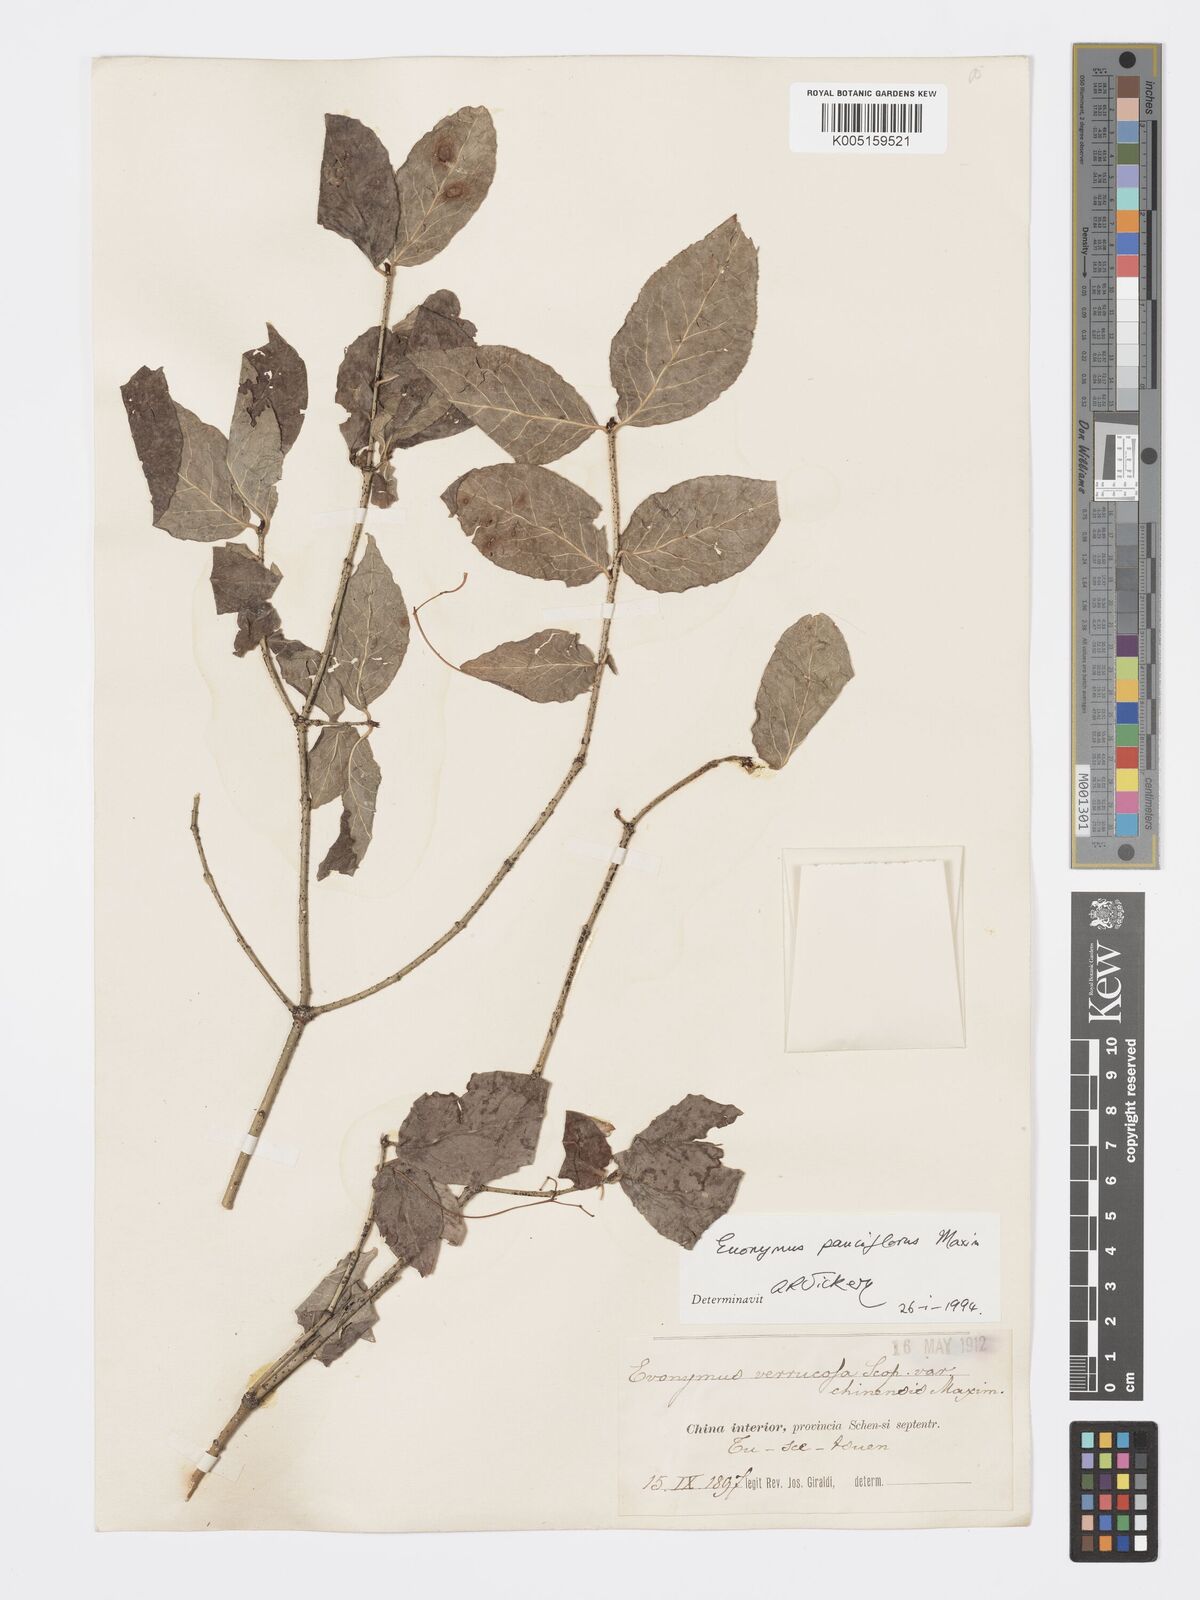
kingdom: Plantae
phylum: Tracheophyta
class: Magnoliopsida
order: Celastrales
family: Celastraceae
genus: Euonymus
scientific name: Euonymus verrucosus
